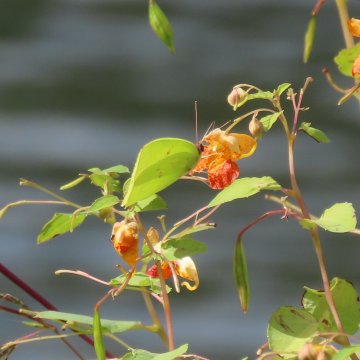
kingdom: Animalia
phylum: Arthropoda
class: Insecta
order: Lepidoptera
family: Pieridae
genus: Phoebis
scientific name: Phoebis sennae
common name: Cloudless Sulphur
